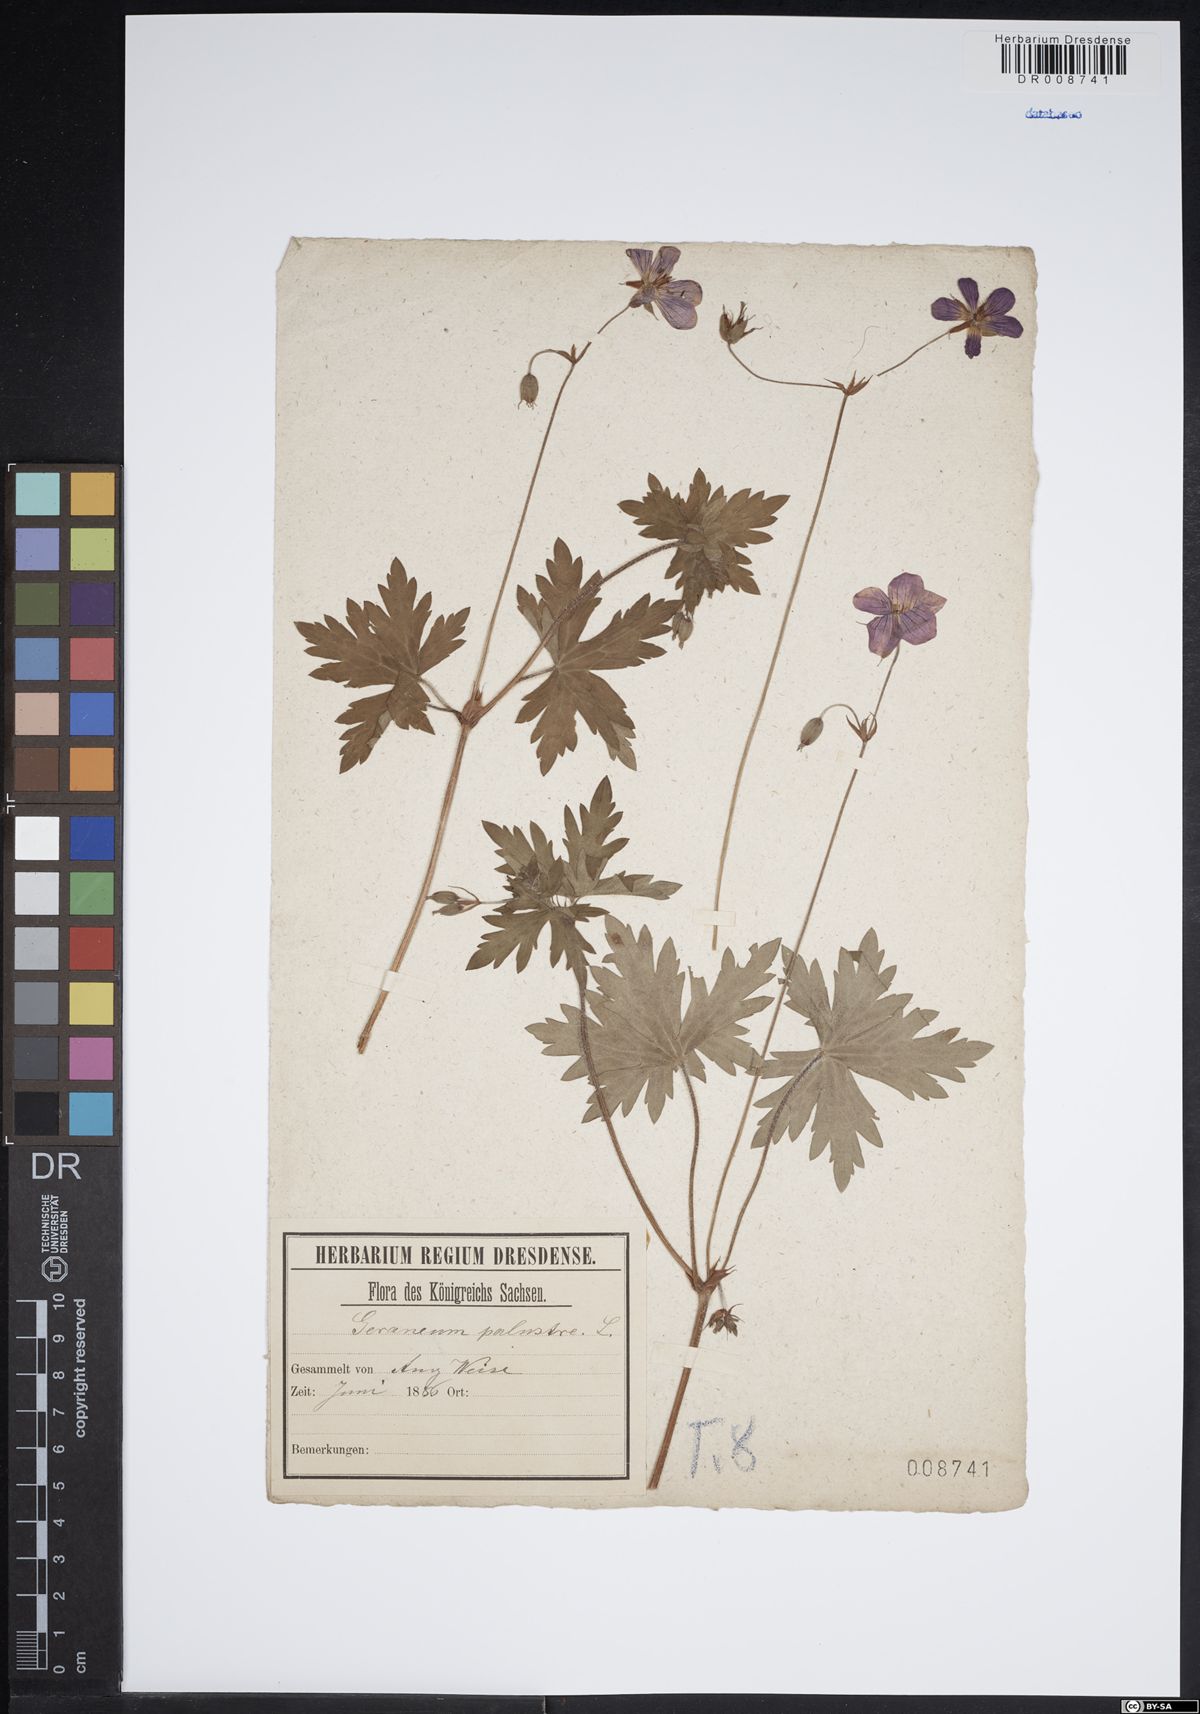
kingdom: Plantae
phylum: Tracheophyta
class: Magnoliopsida
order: Geraniales
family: Geraniaceae
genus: Geranium
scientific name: Geranium palustre
